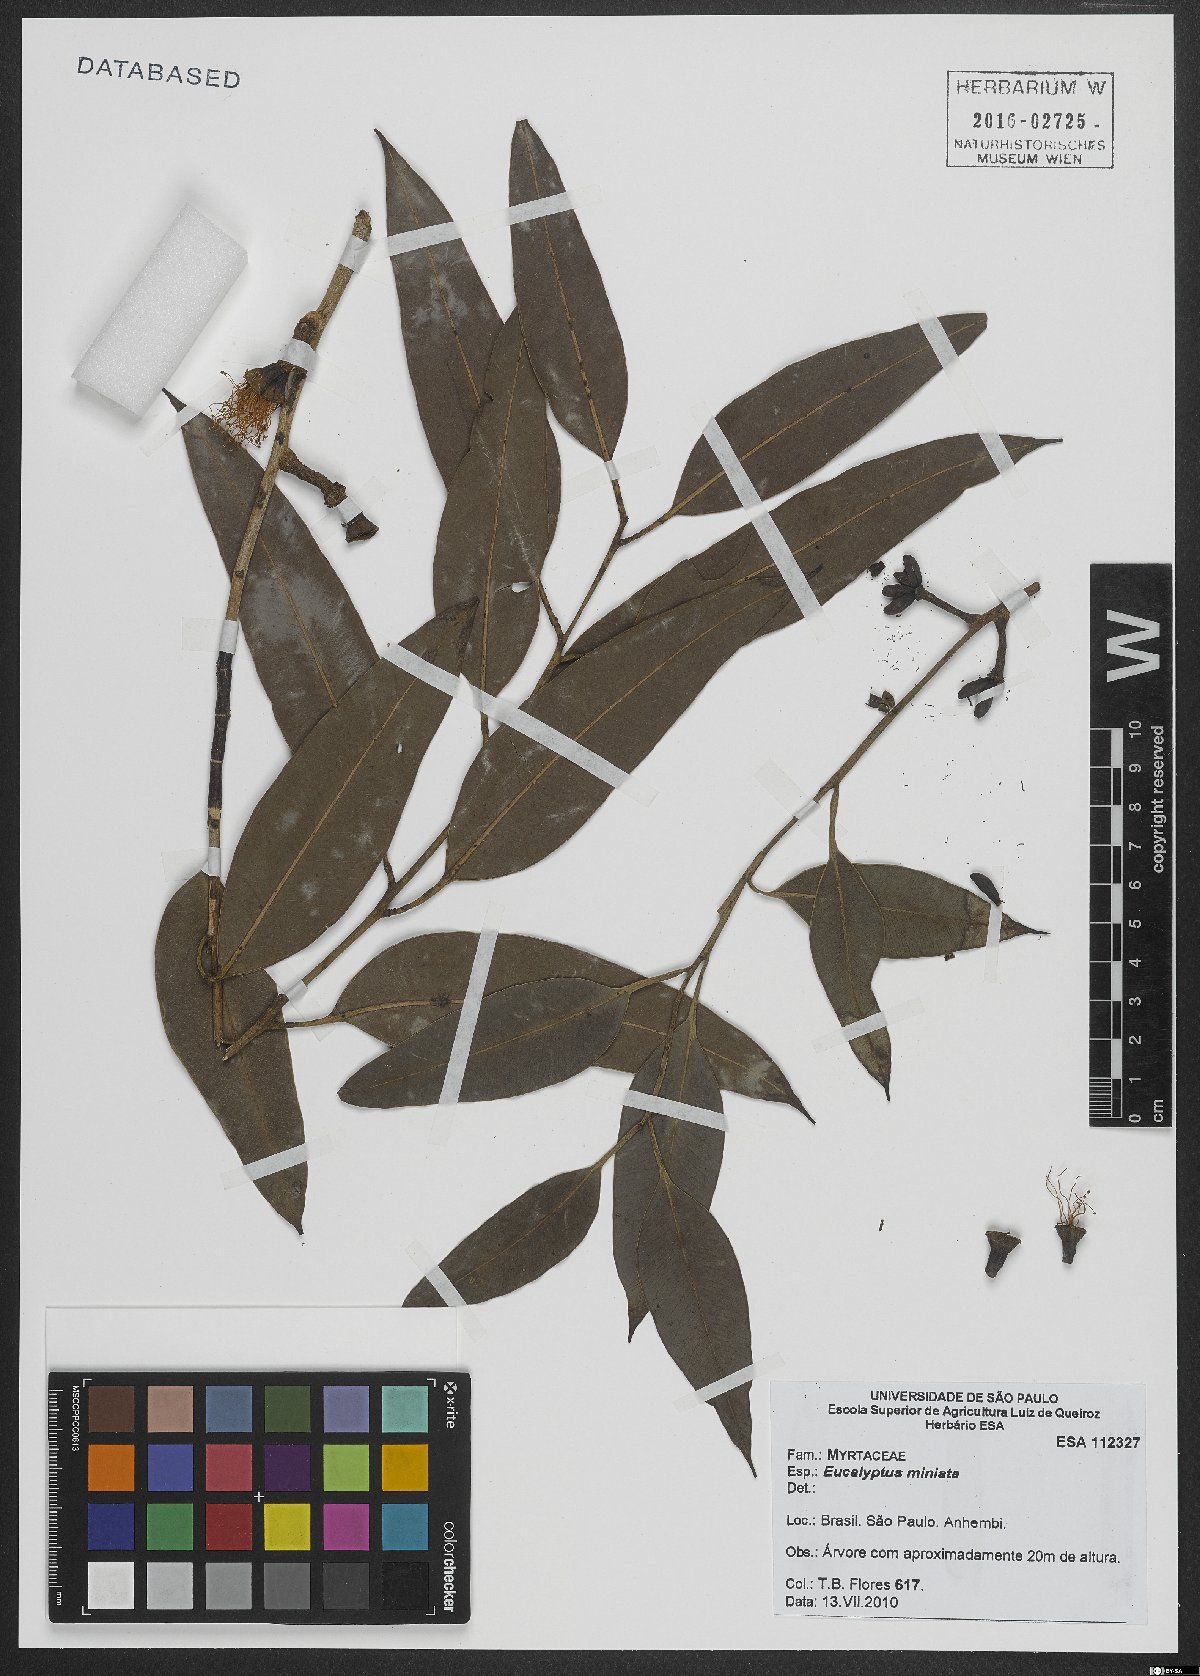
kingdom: Plantae
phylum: Tracheophyta
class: Magnoliopsida
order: Myrtales
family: Myrtaceae
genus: Eucalyptus
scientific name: Eucalyptus miniata
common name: Darwin-woollybutt
